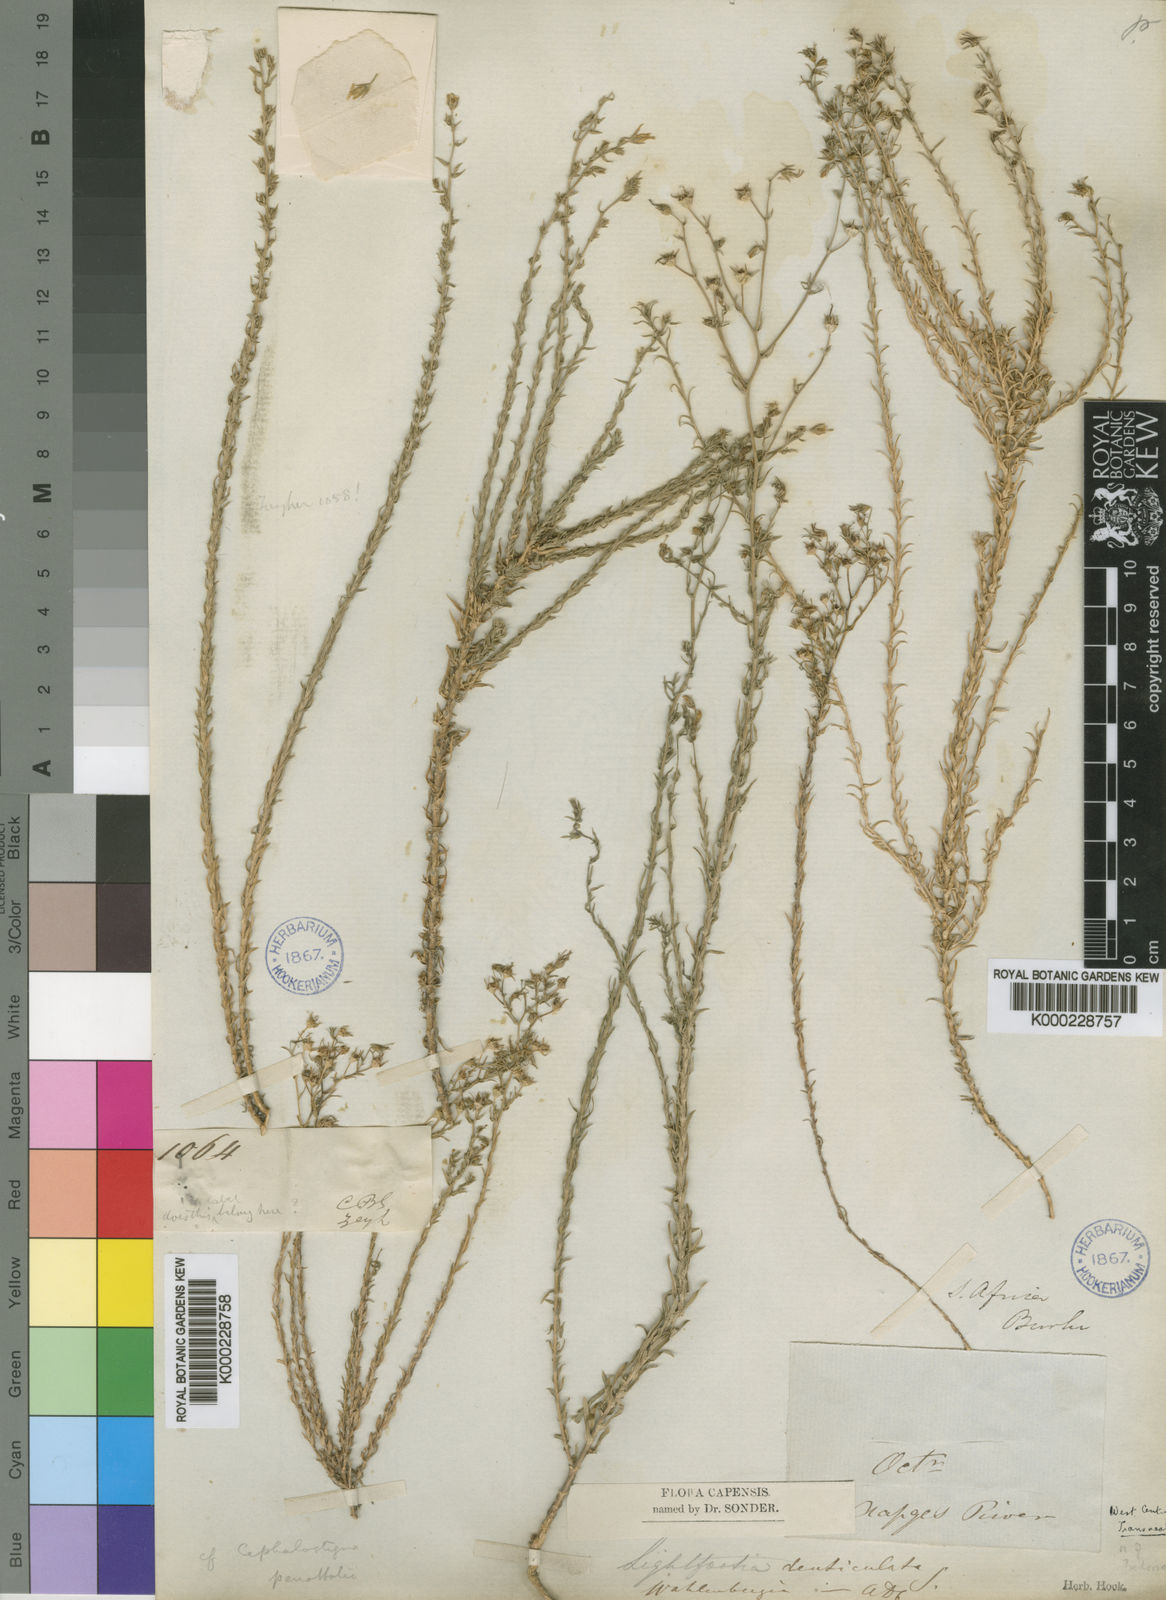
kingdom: Plantae
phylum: Tracheophyta
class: Magnoliopsida
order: Asterales
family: Campanulaceae
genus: Wahlenbergia
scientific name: Wahlenbergia dieterlenii
